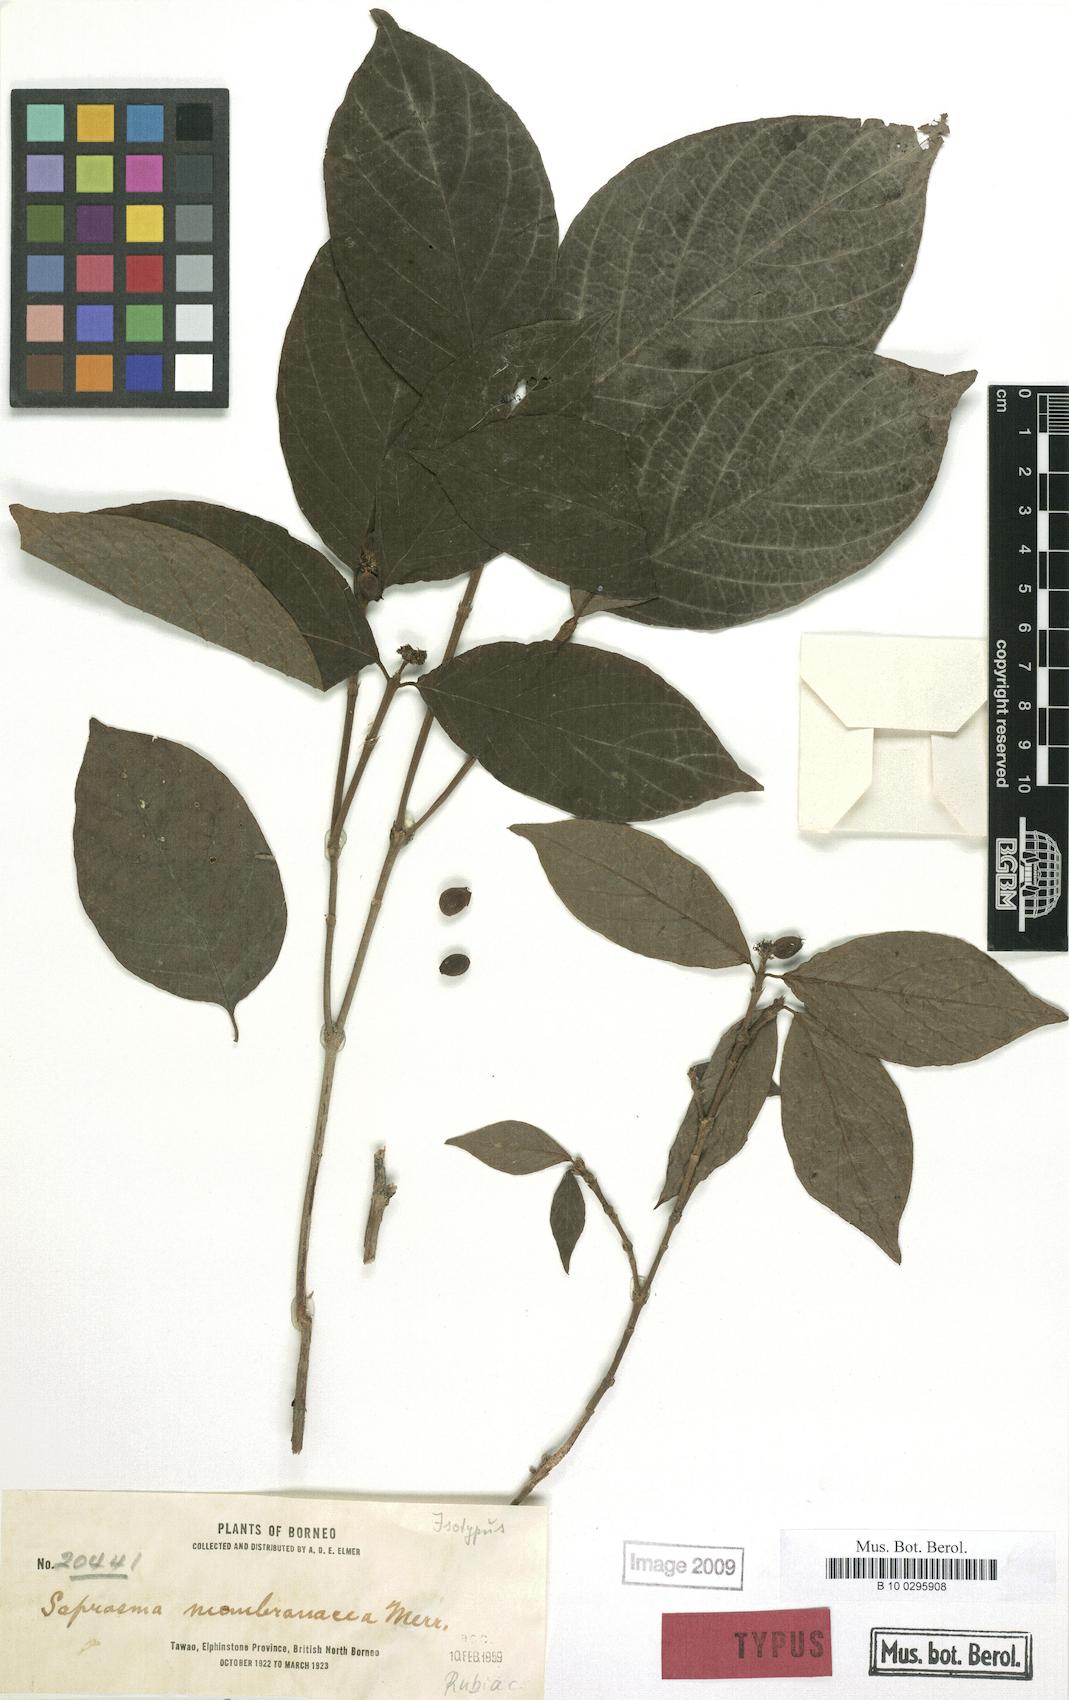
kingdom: Plantae
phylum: Tracheophyta
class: Magnoliopsida
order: Gentianales
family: Rubiaceae
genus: Saprosma
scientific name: Saprosma membranacea
